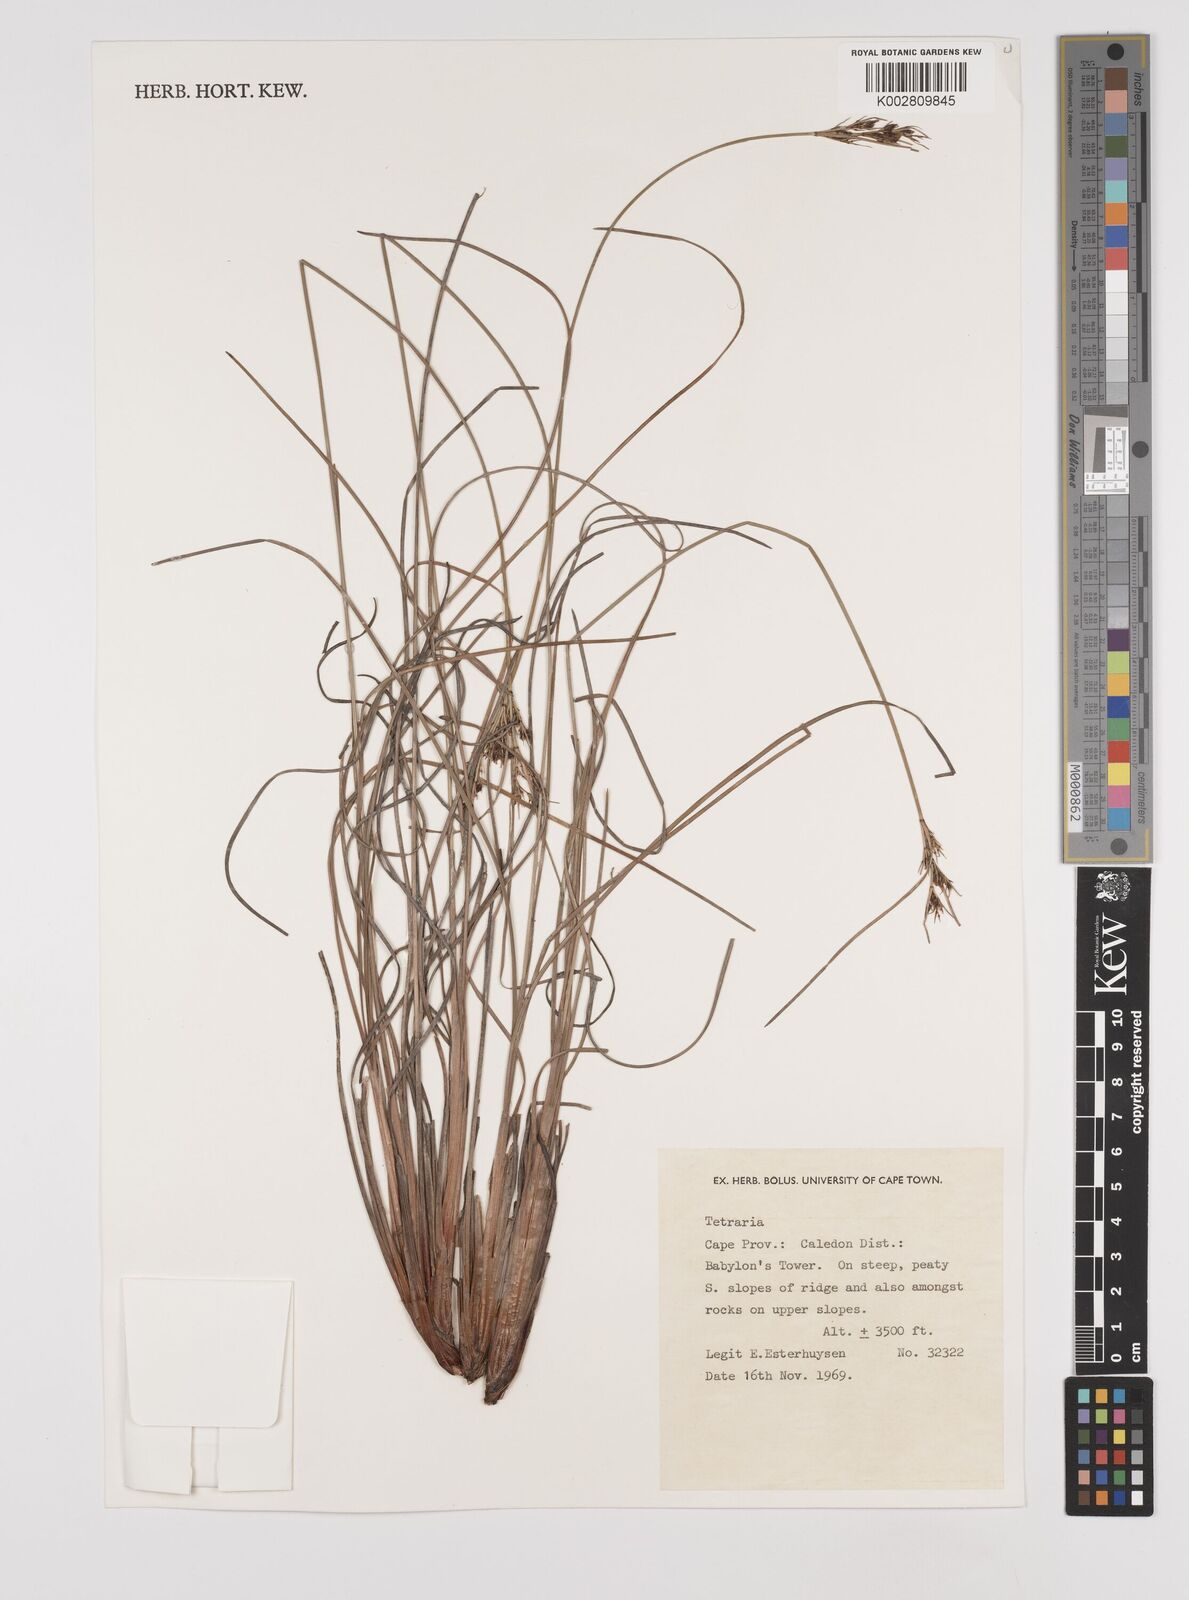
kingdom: Plantae
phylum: Tracheophyta
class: Liliopsida
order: Poales
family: Cyperaceae
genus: Schoenus
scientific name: Schoenus
